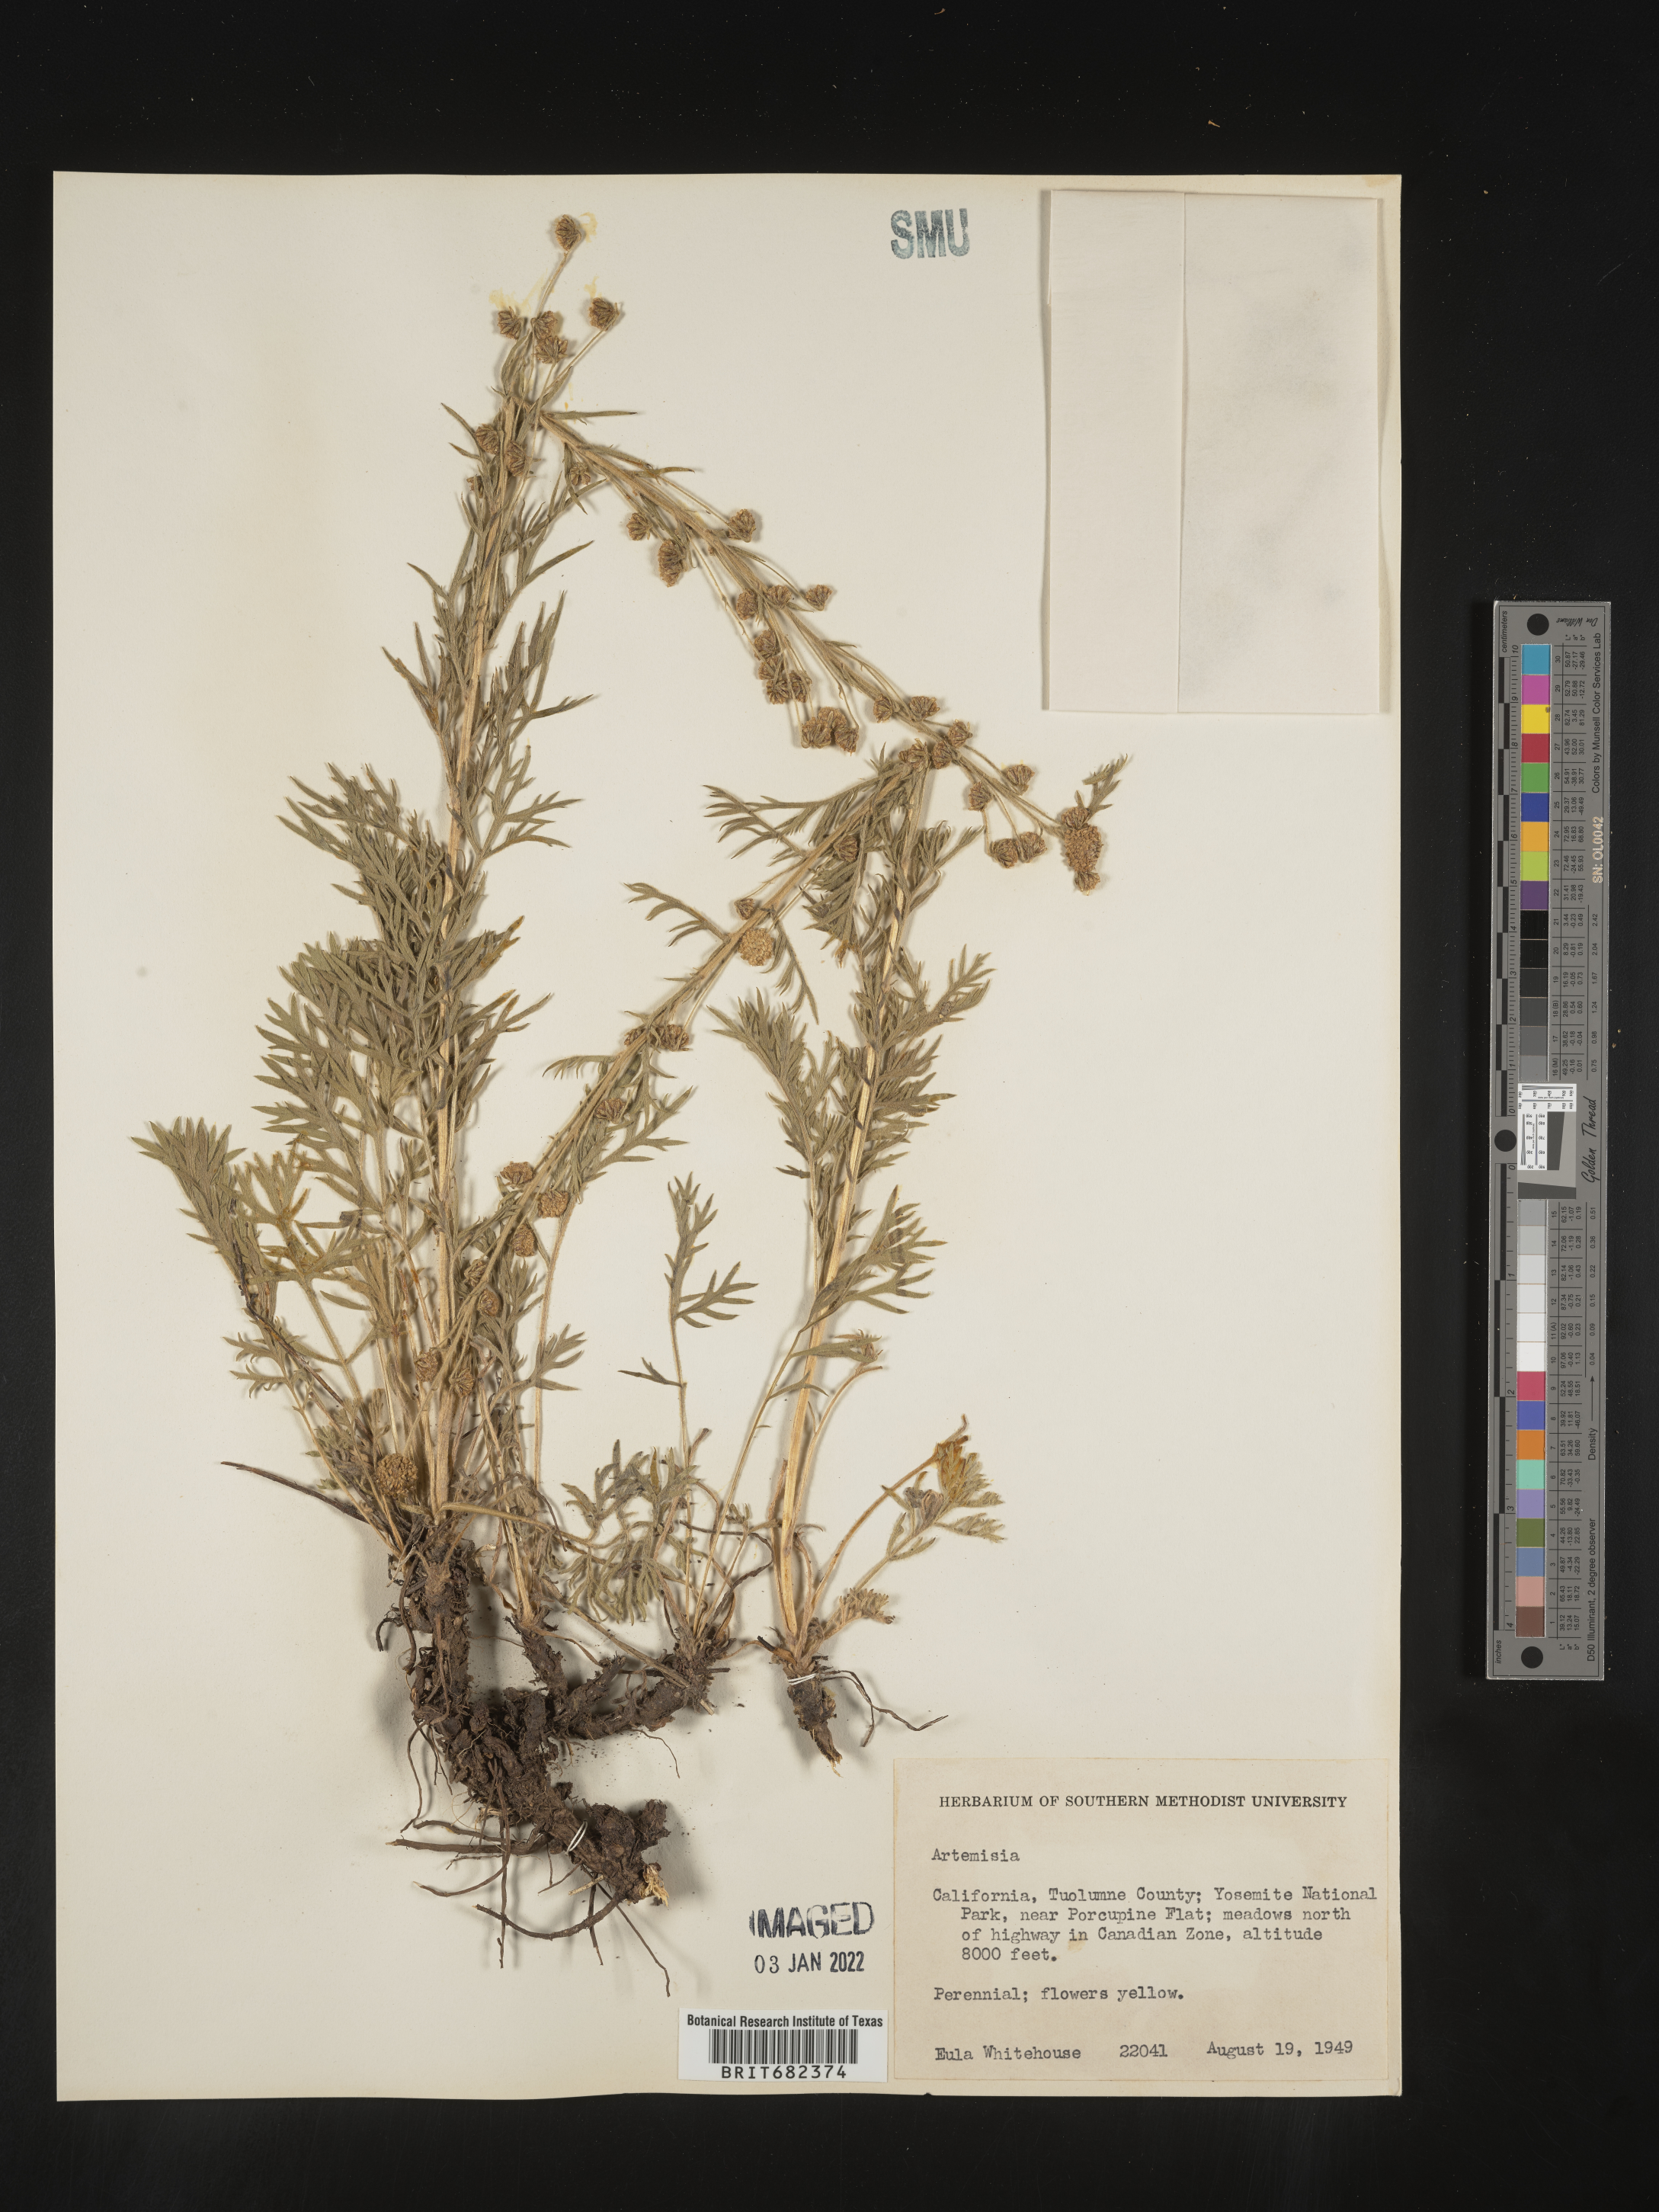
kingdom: Plantae
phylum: Tracheophyta
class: Magnoliopsida
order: Asterales
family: Asteraceae
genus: Artemisia
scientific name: Artemisia
